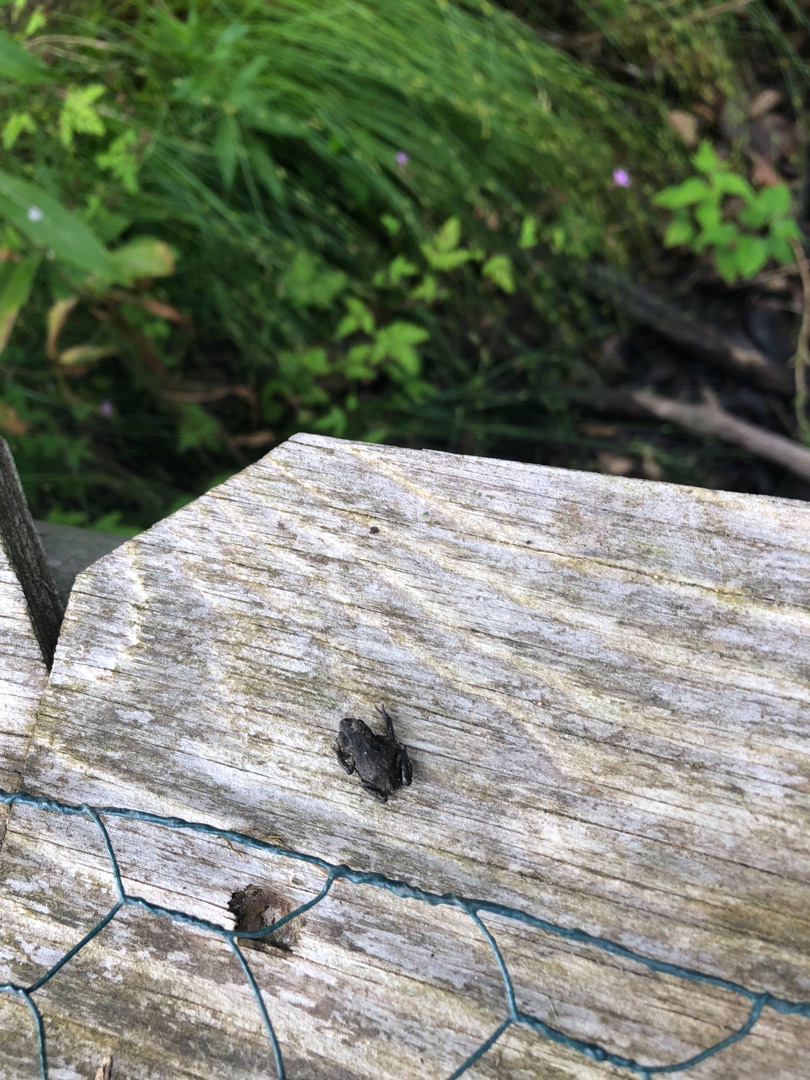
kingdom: Animalia
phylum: Chordata
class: Amphibia
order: Anura
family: Bufonidae
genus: Bufo
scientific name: Bufo bufo
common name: Skrubtudse
